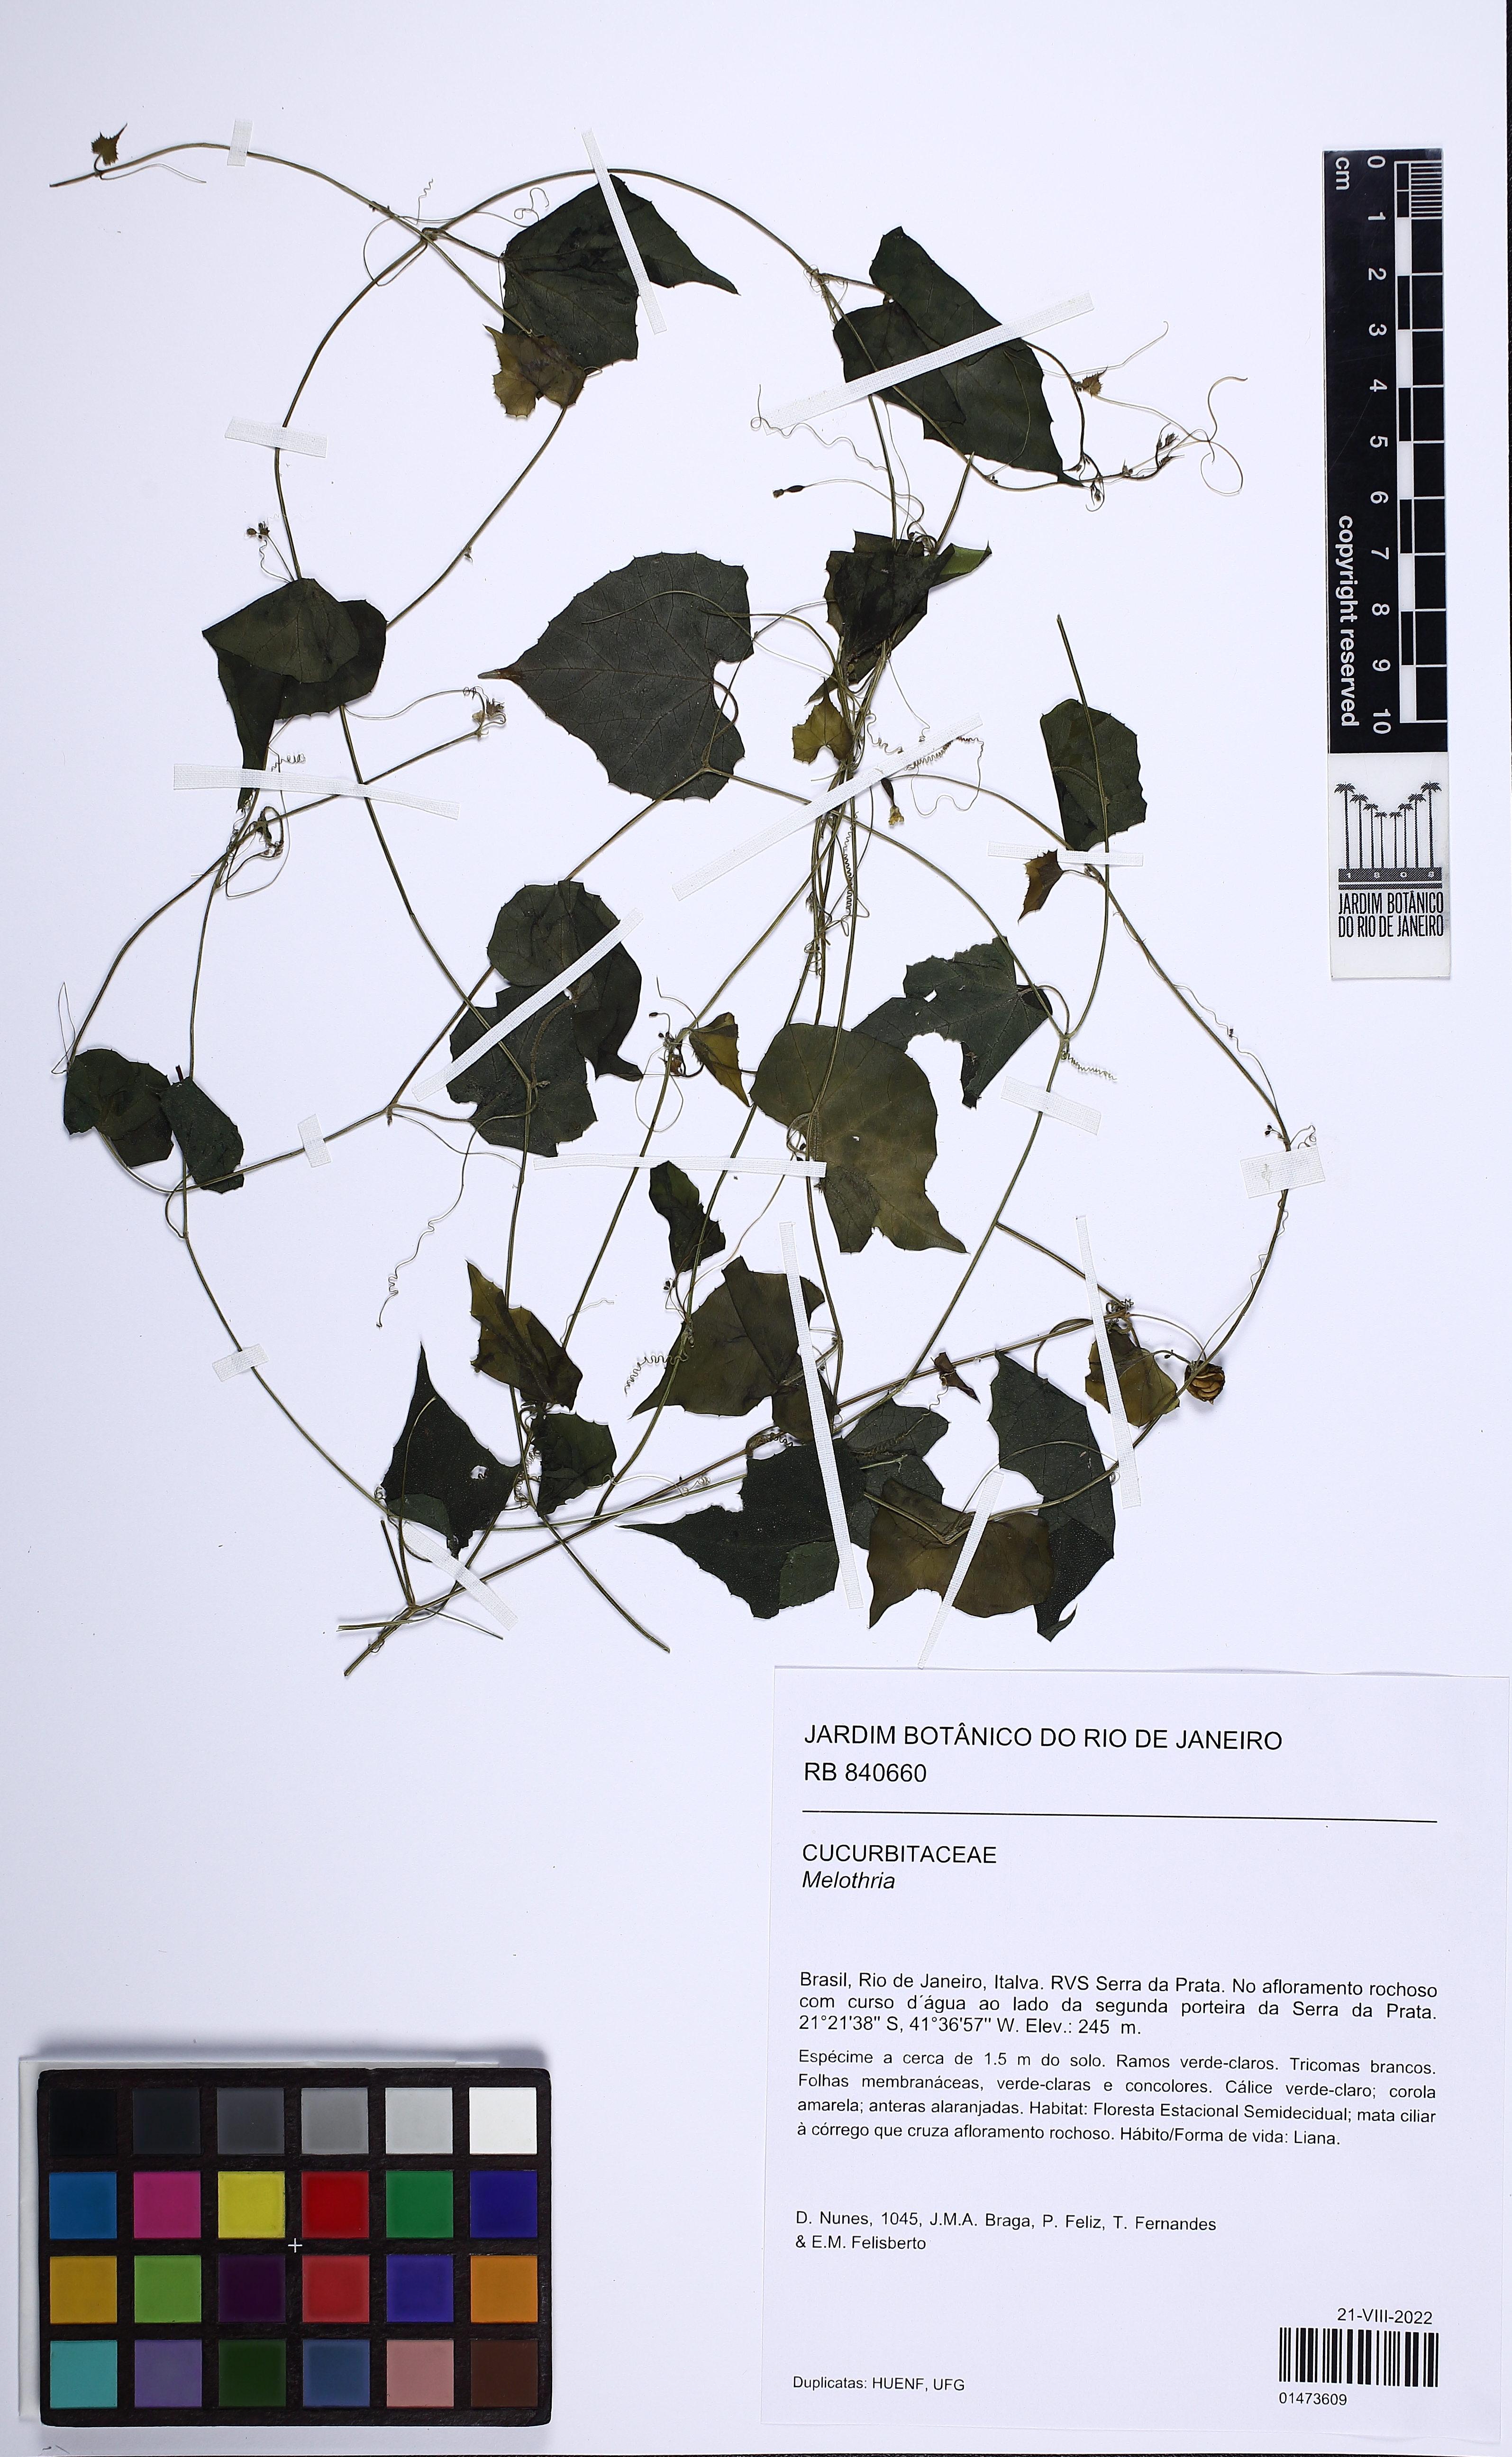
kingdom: Plantae
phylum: Tracheophyta
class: Magnoliopsida
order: Cucurbitales
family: Cucurbitaceae
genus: Melothria
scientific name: Melothria pendula
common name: Creeping-cucumber
